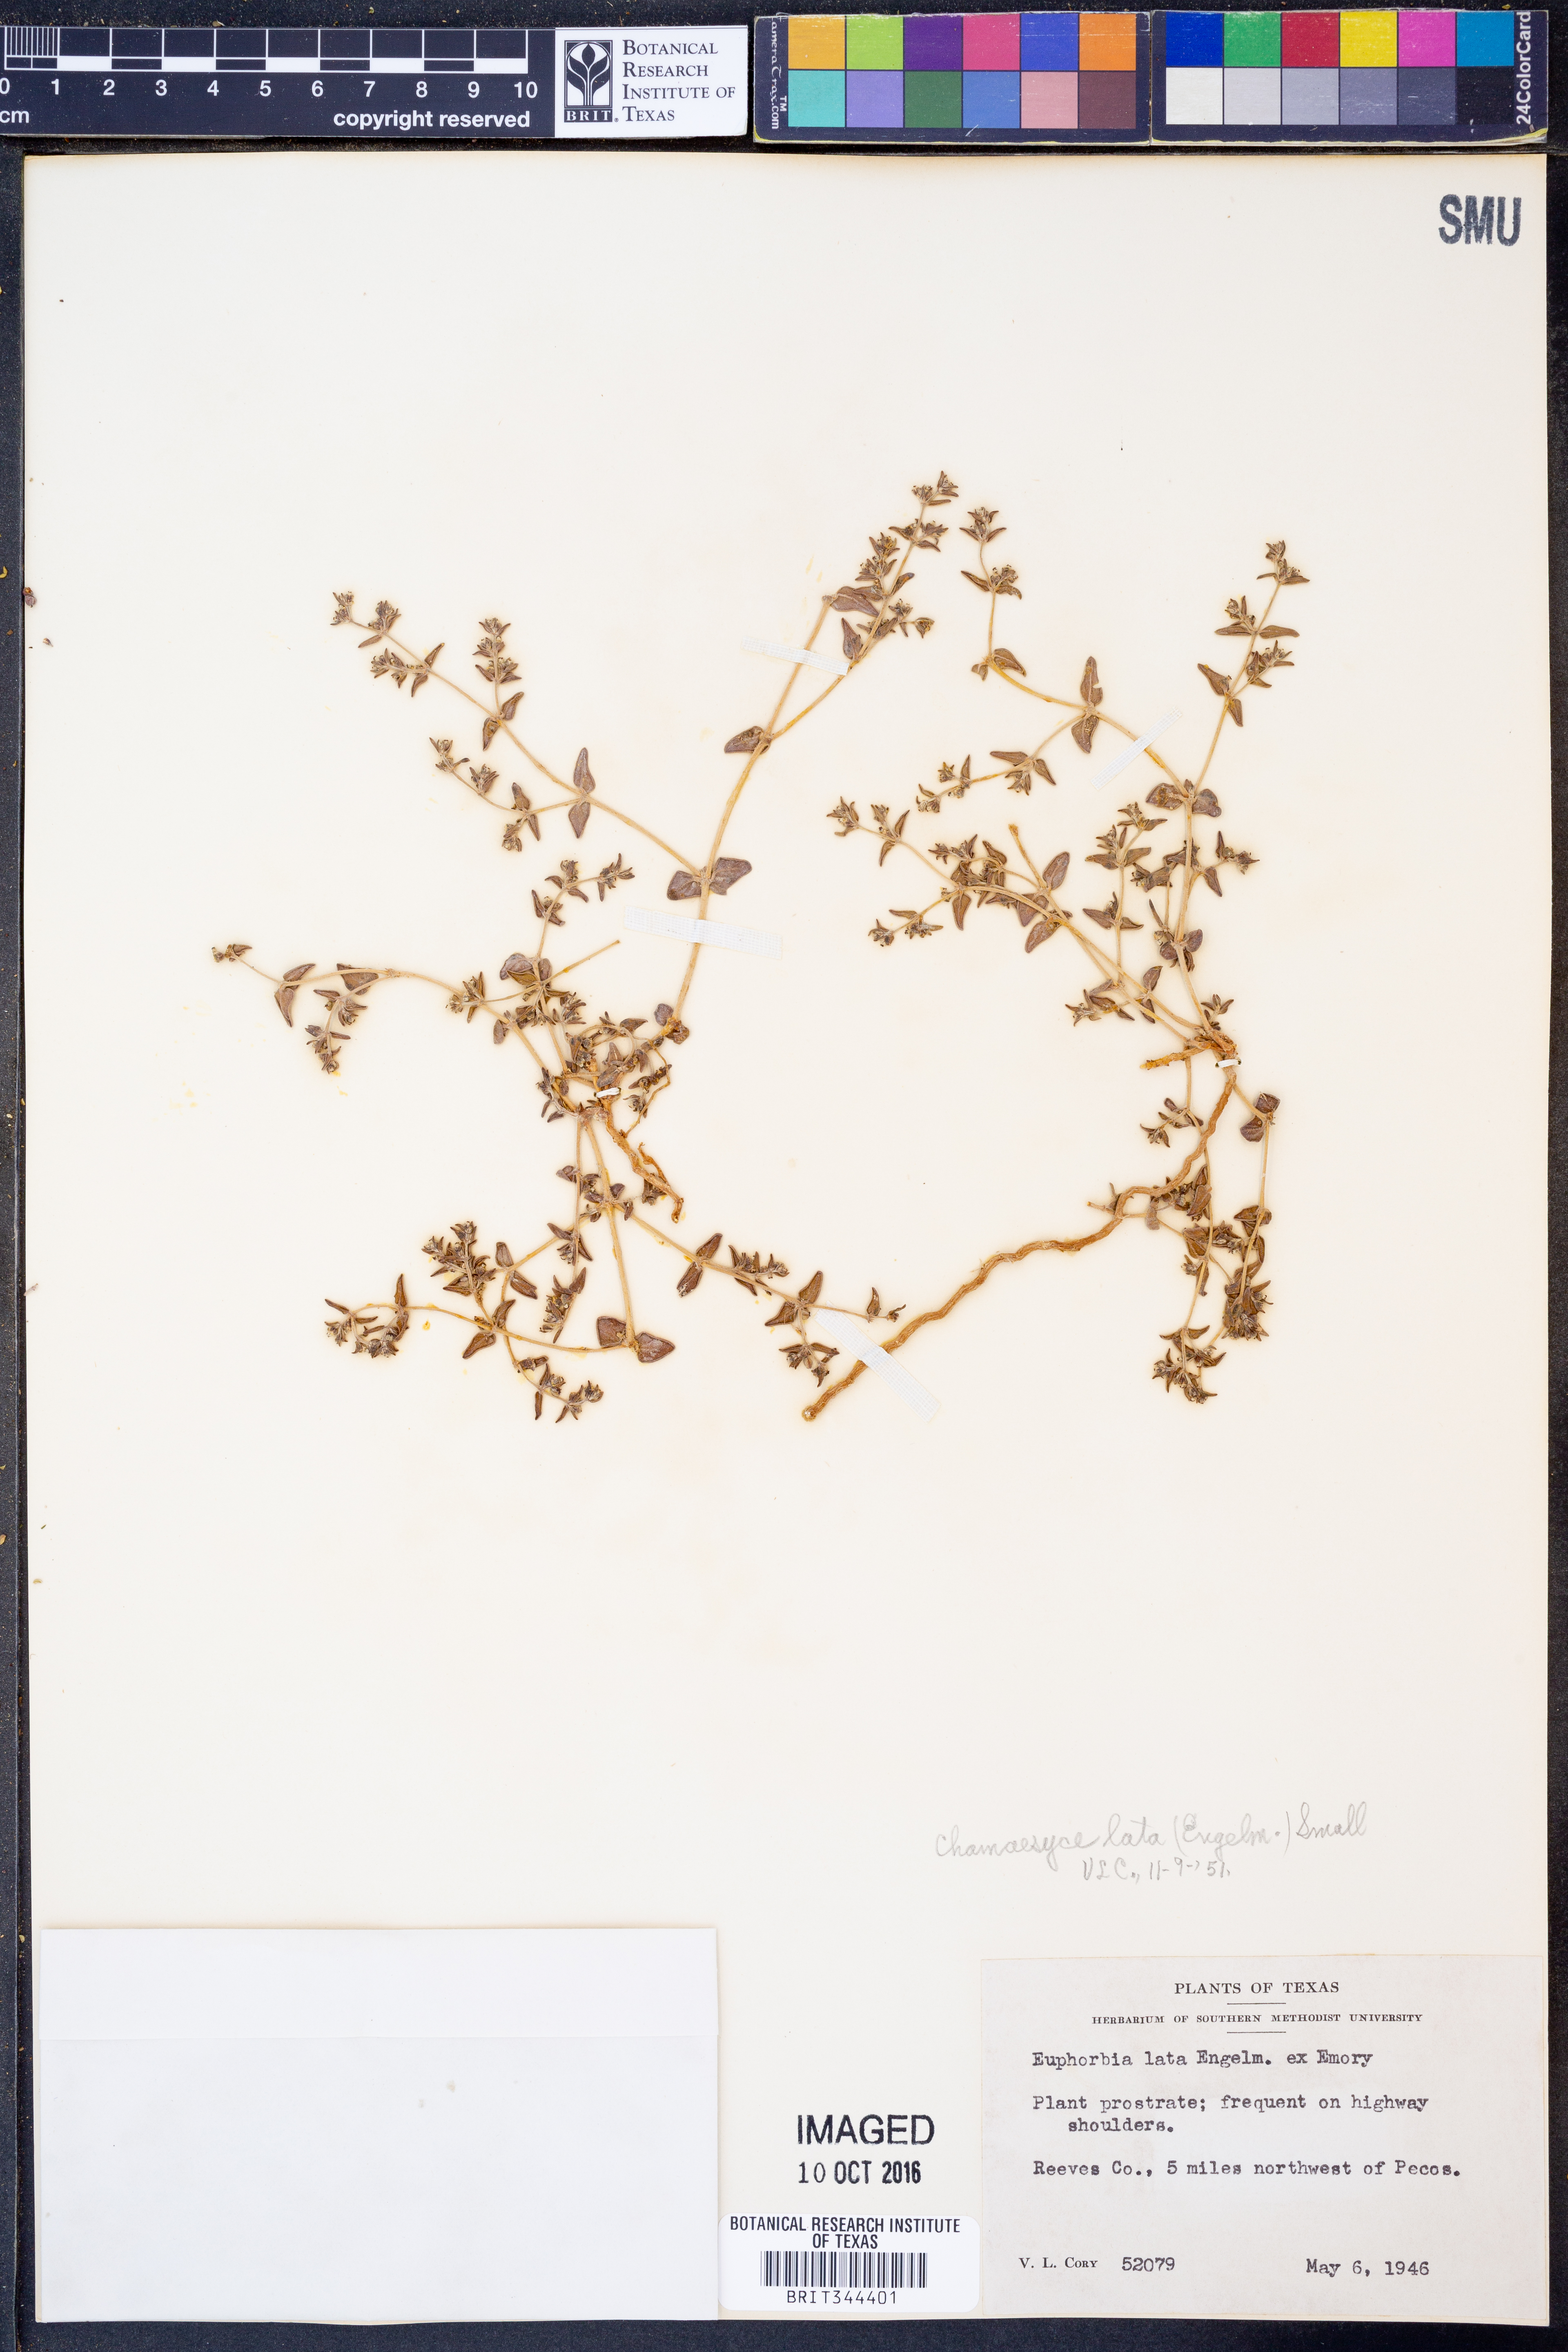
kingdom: Plantae
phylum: Tracheophyta
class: Magnoliopsida
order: Malpighiales
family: Euphorbiaceae
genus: Euphorbia
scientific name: Euphorbia lata
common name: Hoary euphorbia
